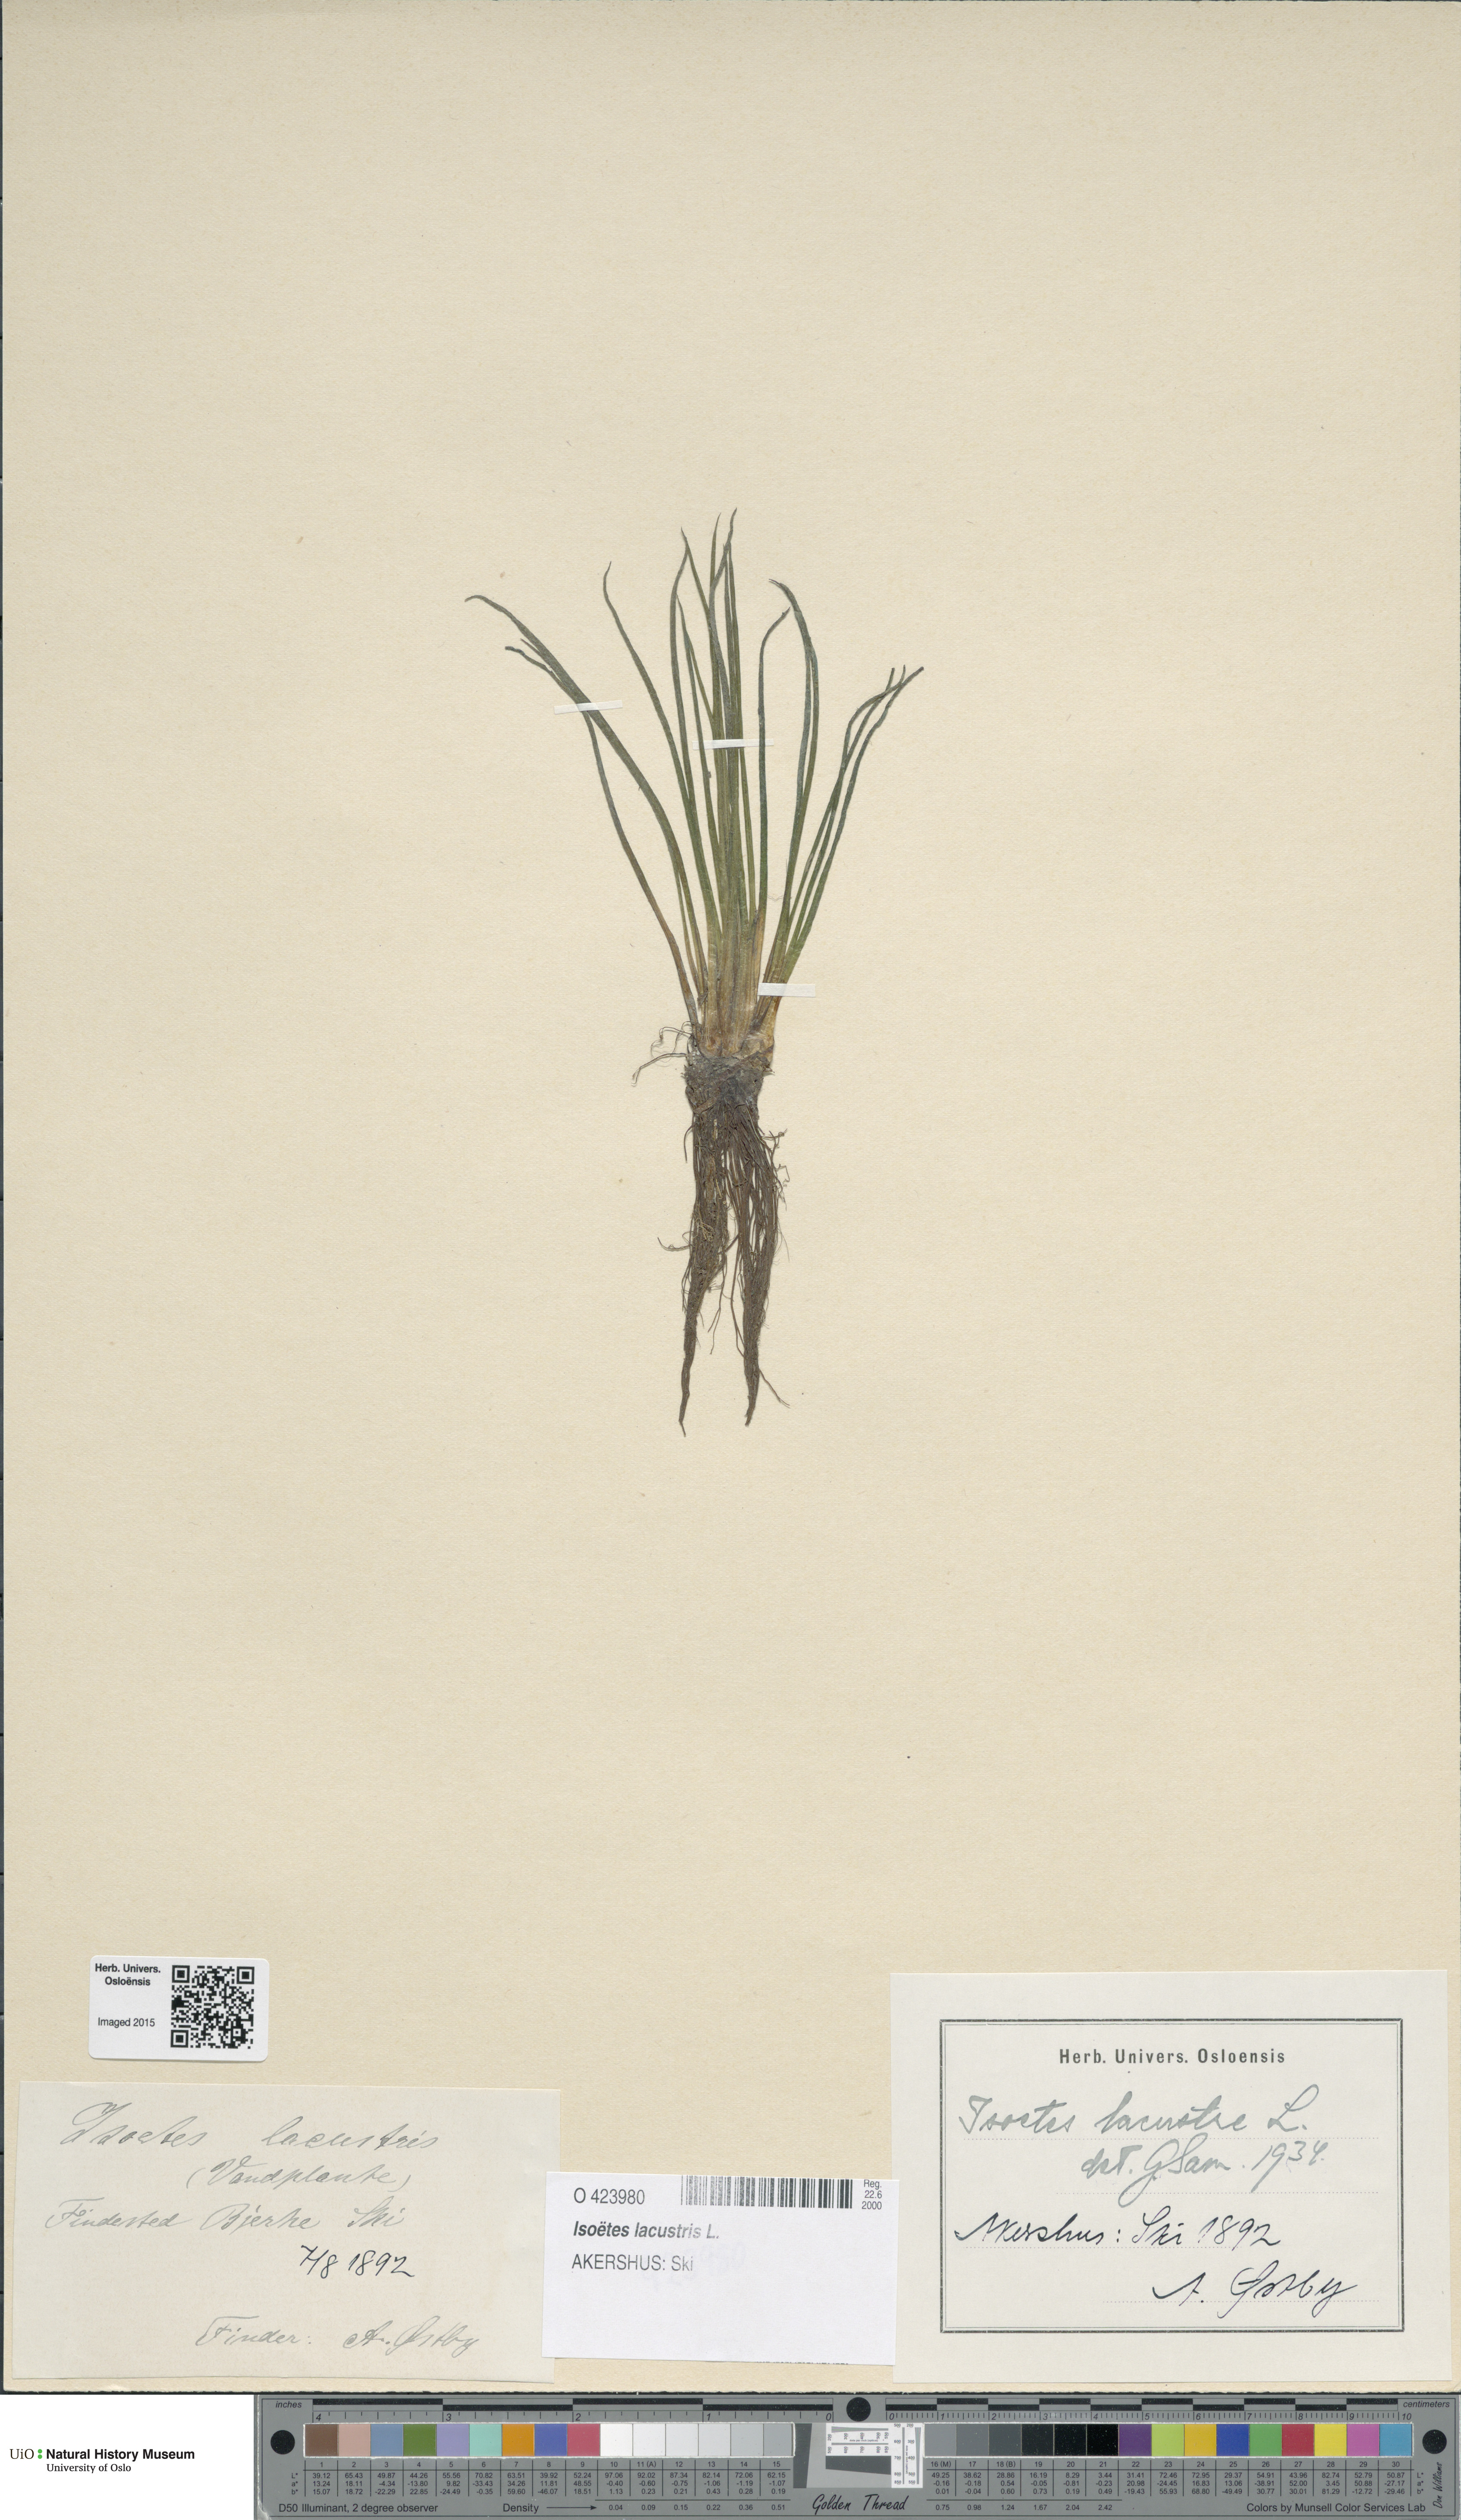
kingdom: Plantae
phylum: Tracheophyta
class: Lycopodiopsida
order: Isoetales
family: Isoetaceae
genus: Isoetes
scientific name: Isoetes lacustris
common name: Common quillwort
